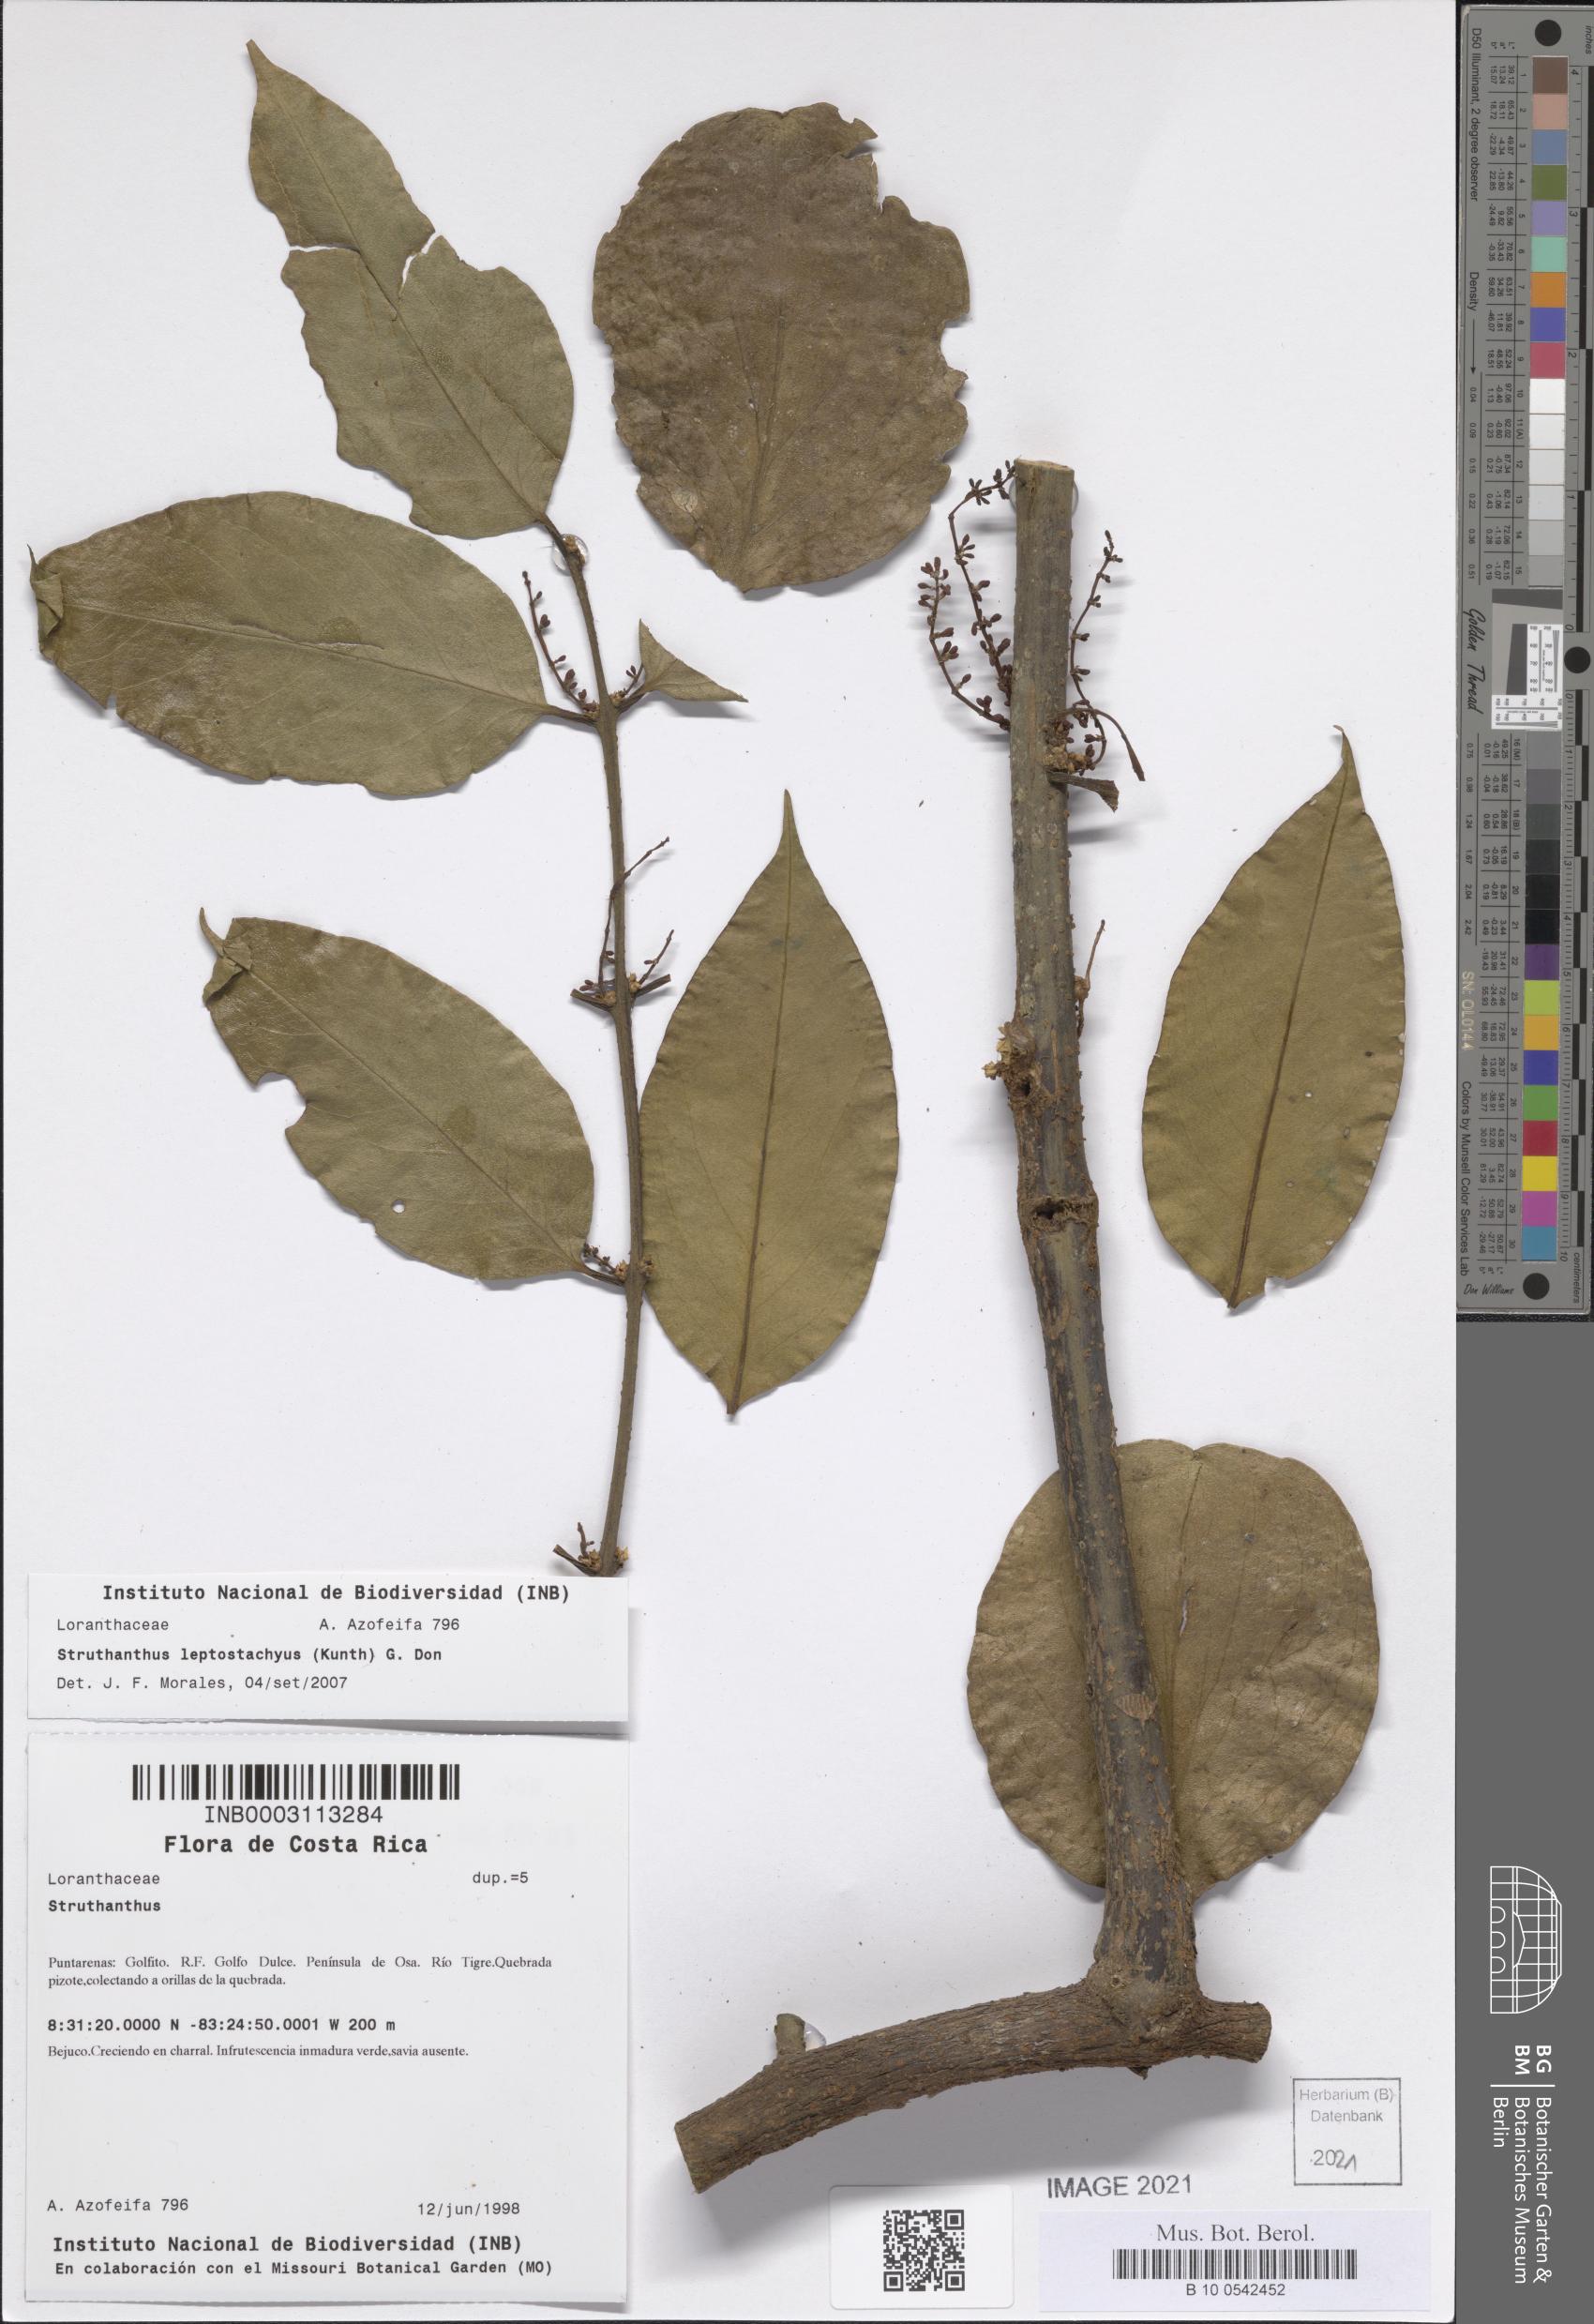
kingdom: Plantae
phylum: Tracheophyta
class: Magnoliopsida
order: Santalales
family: Loranthaceae
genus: Peristethium
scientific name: Peristethium leptostachyum
